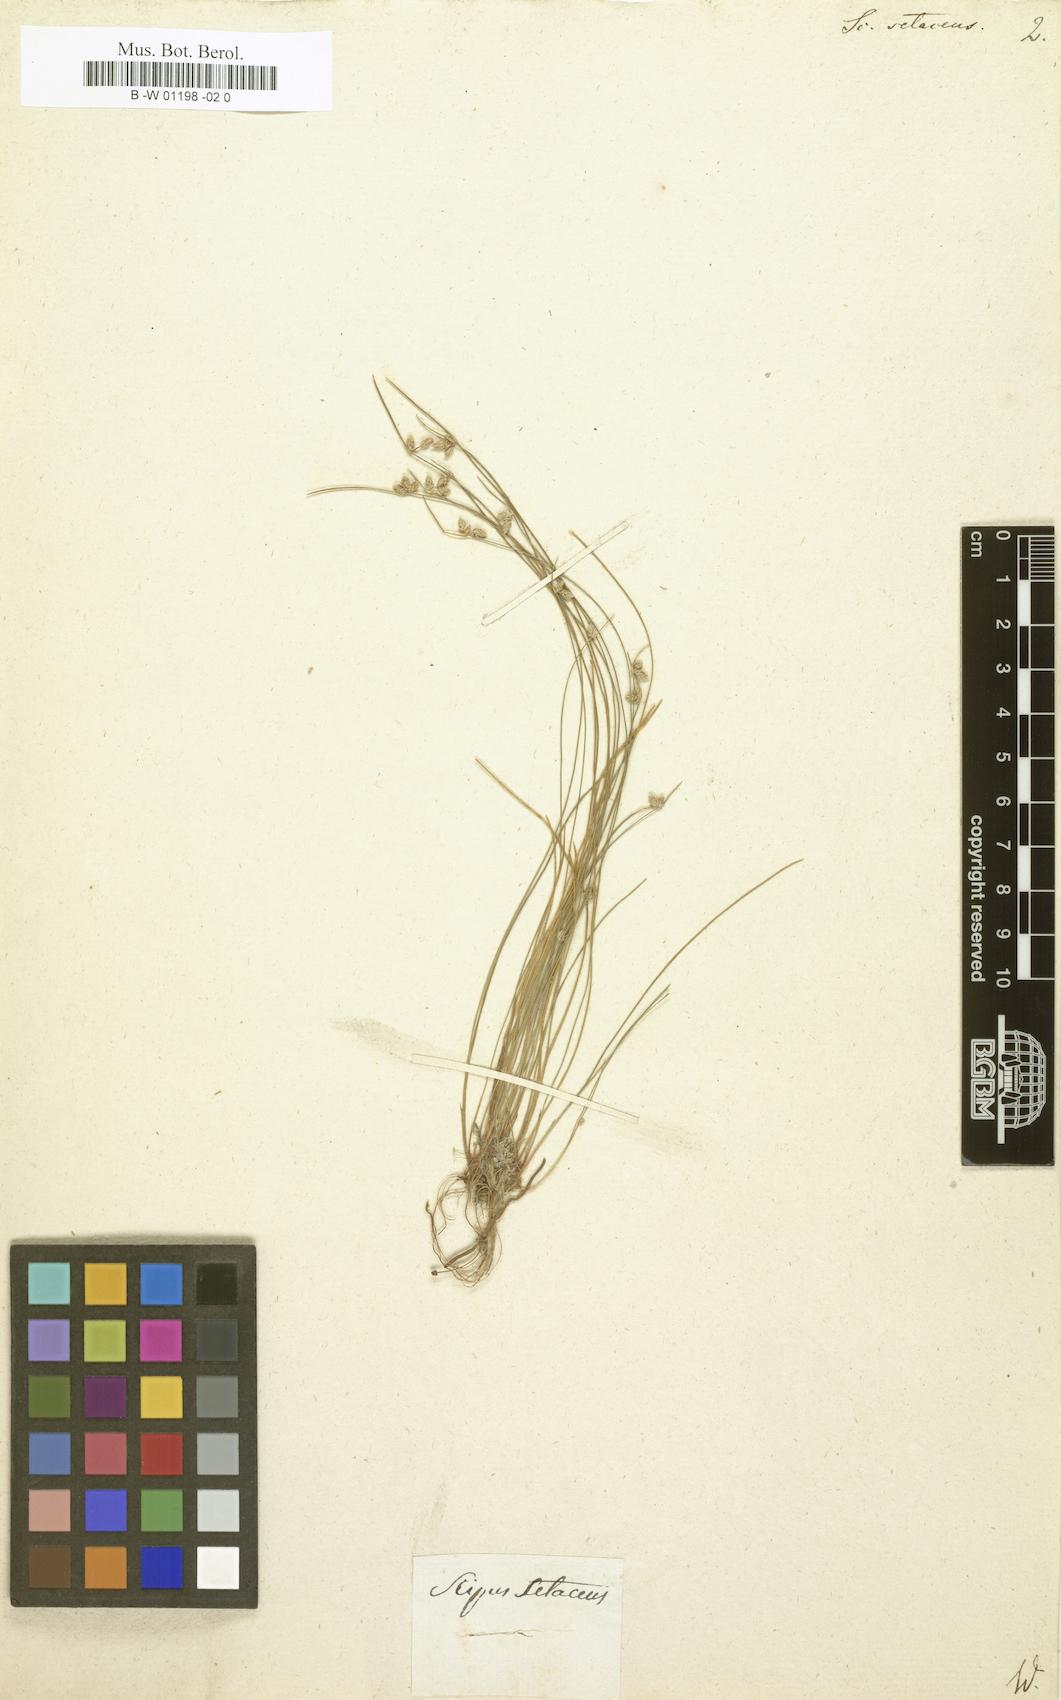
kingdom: Plantae
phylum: Tracheophyta
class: Liliopsida
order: Poales
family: Cyperaceae
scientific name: Cyperaceae
